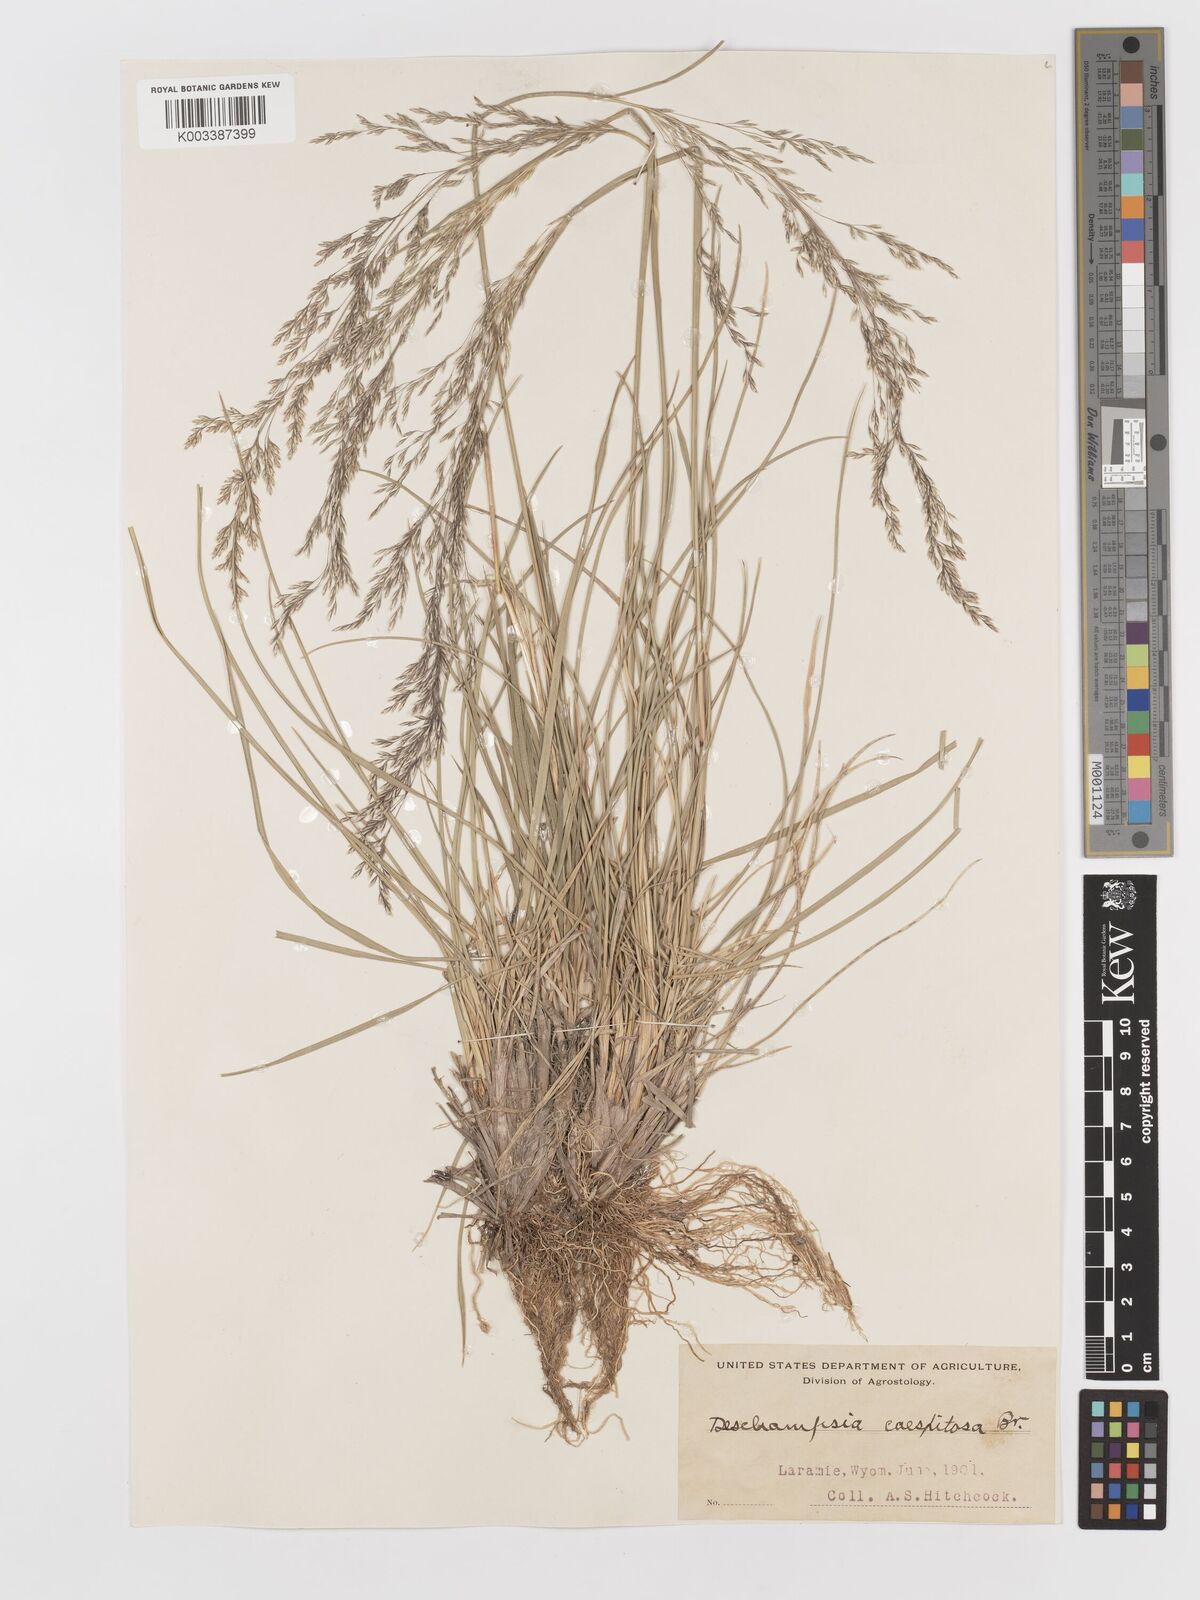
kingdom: Plantae
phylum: Tracheophyta
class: Liliopsida
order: Poales
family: Poaceae
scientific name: Poaceae
